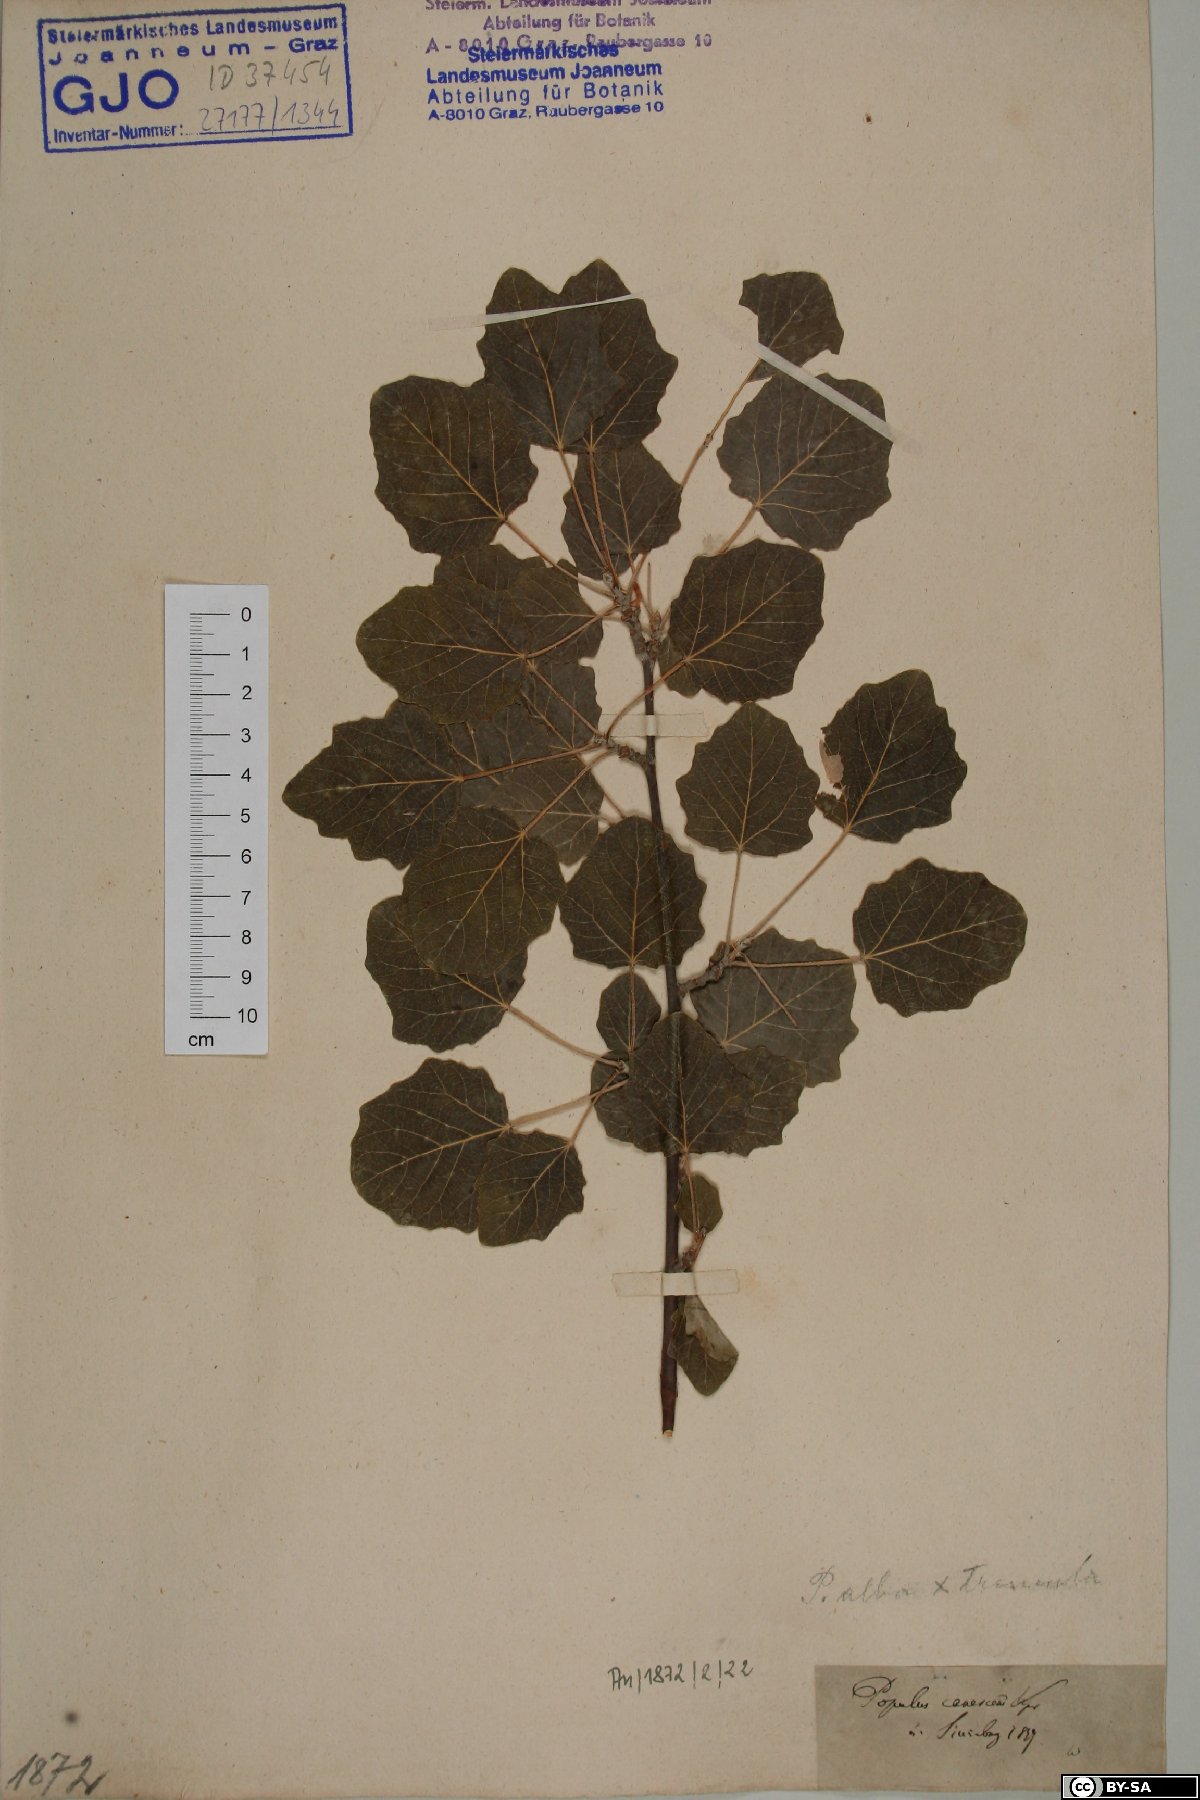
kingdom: Plantae
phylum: Tracheophyta
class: Magnoliopsida
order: Malpighiales
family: Salicaceae
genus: Populus
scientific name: Populus canescens
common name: Gray poplar
